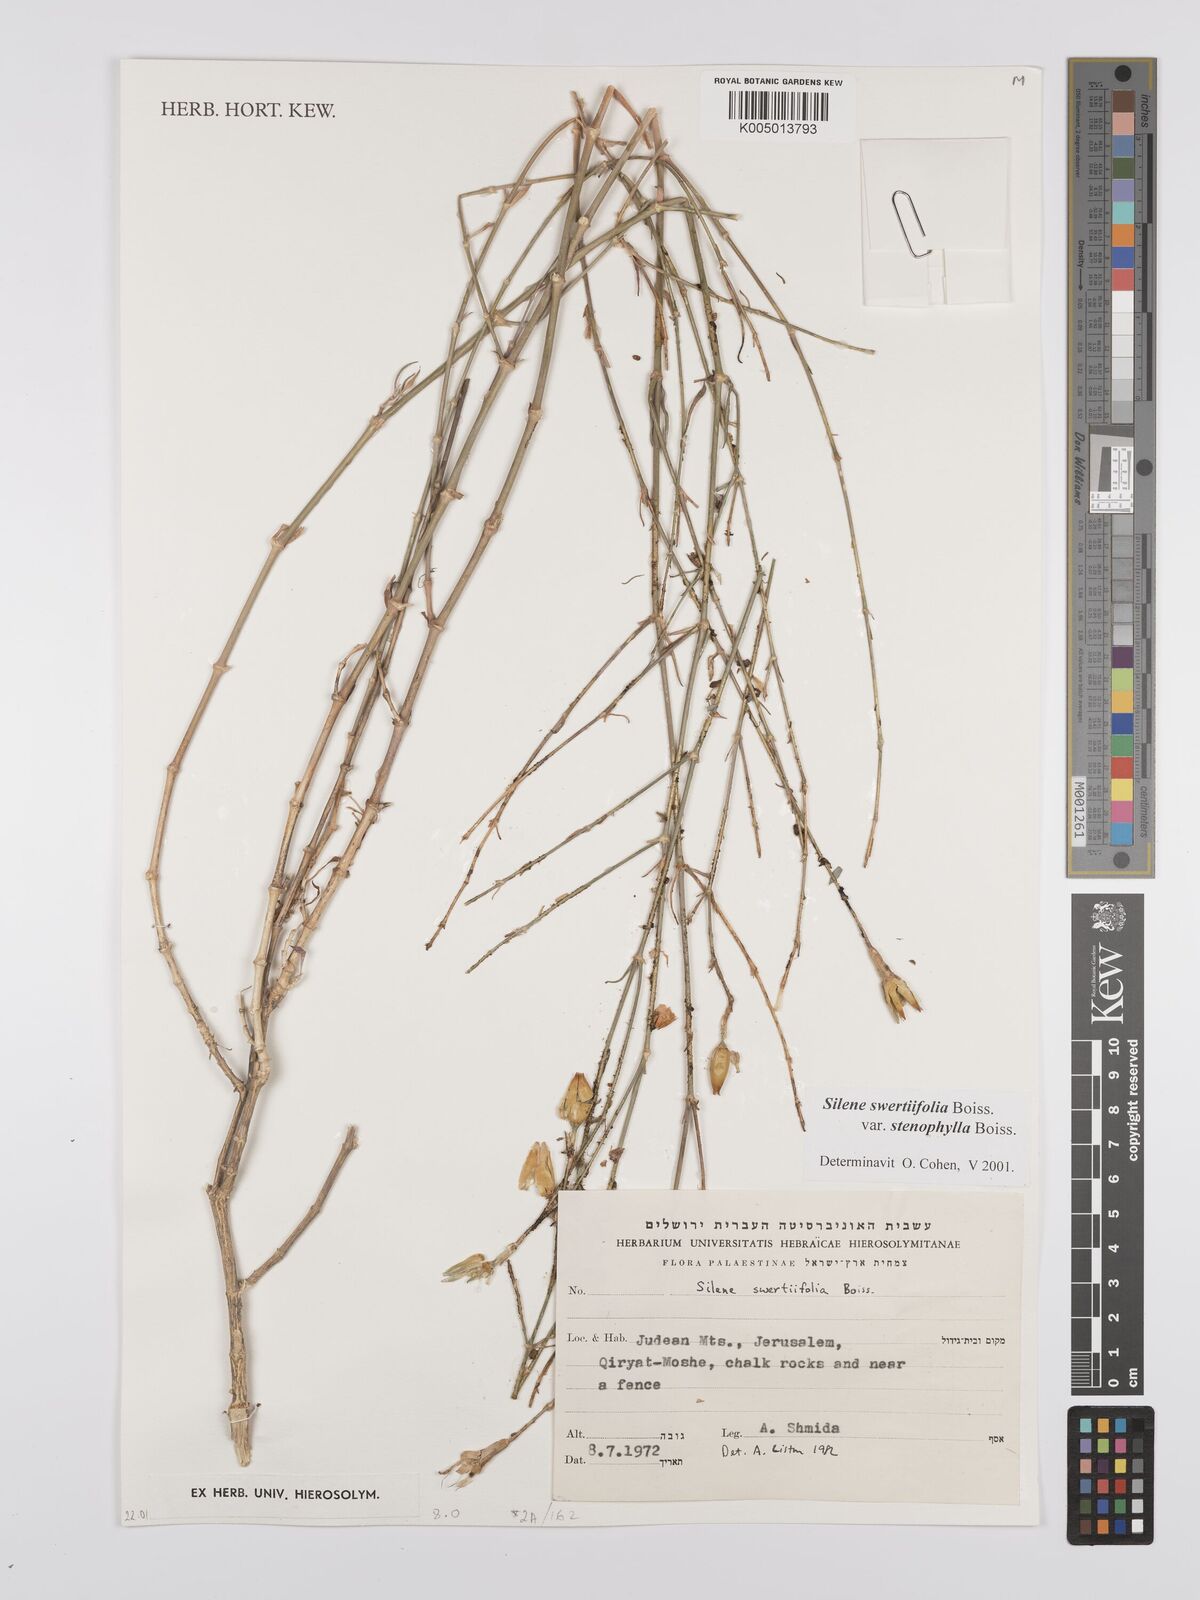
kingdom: Plantae
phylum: Tracheophyta
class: Magnoliopsida
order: Caryophyllales
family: Caryophyllaceae
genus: Silene
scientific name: Silene swertiifolia
